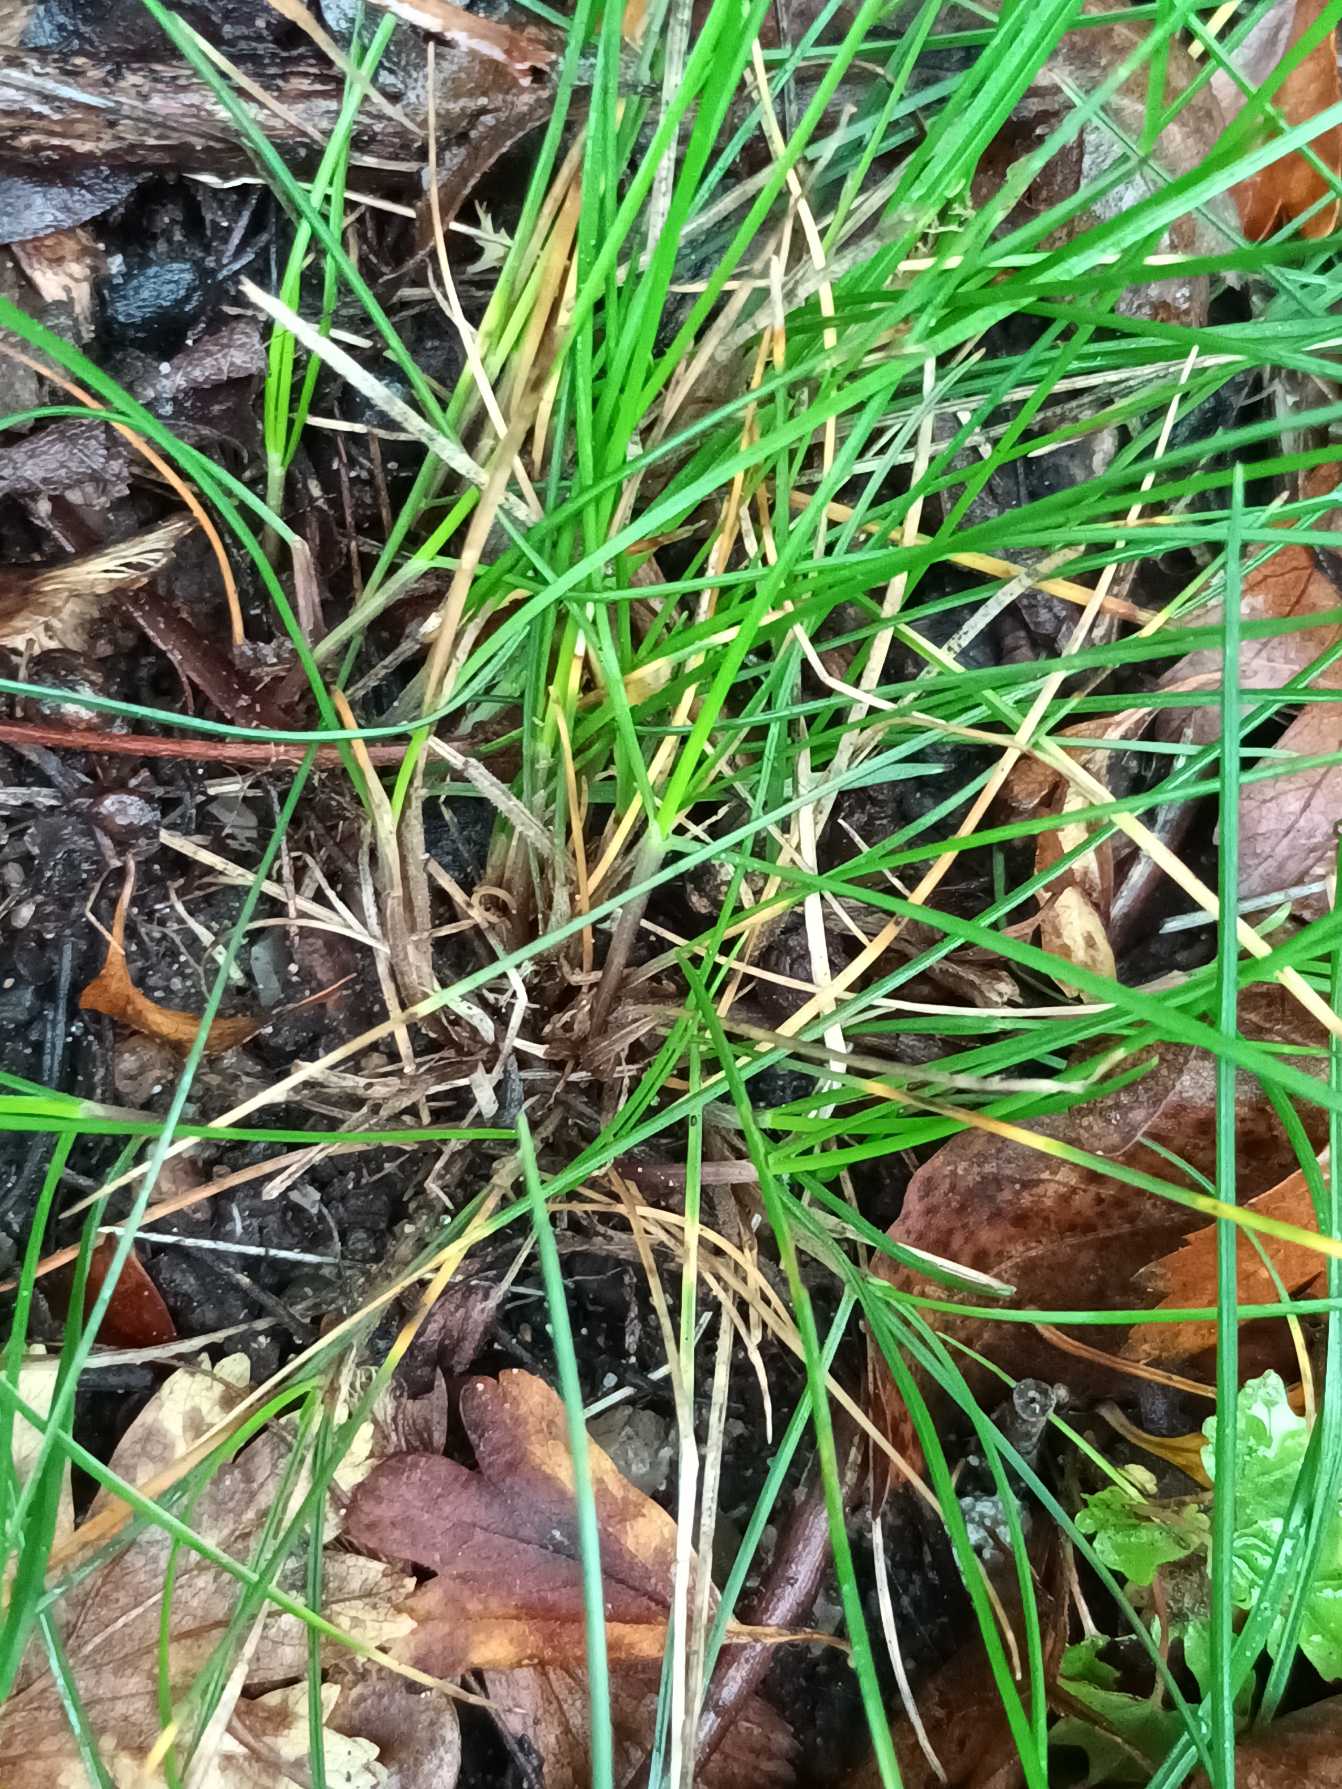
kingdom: Plantae
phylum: Tracheophyta
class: Liliopsida
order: Poales
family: Poaceae
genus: Festuca
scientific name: Festuca nigrescens
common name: Vej-svingel
